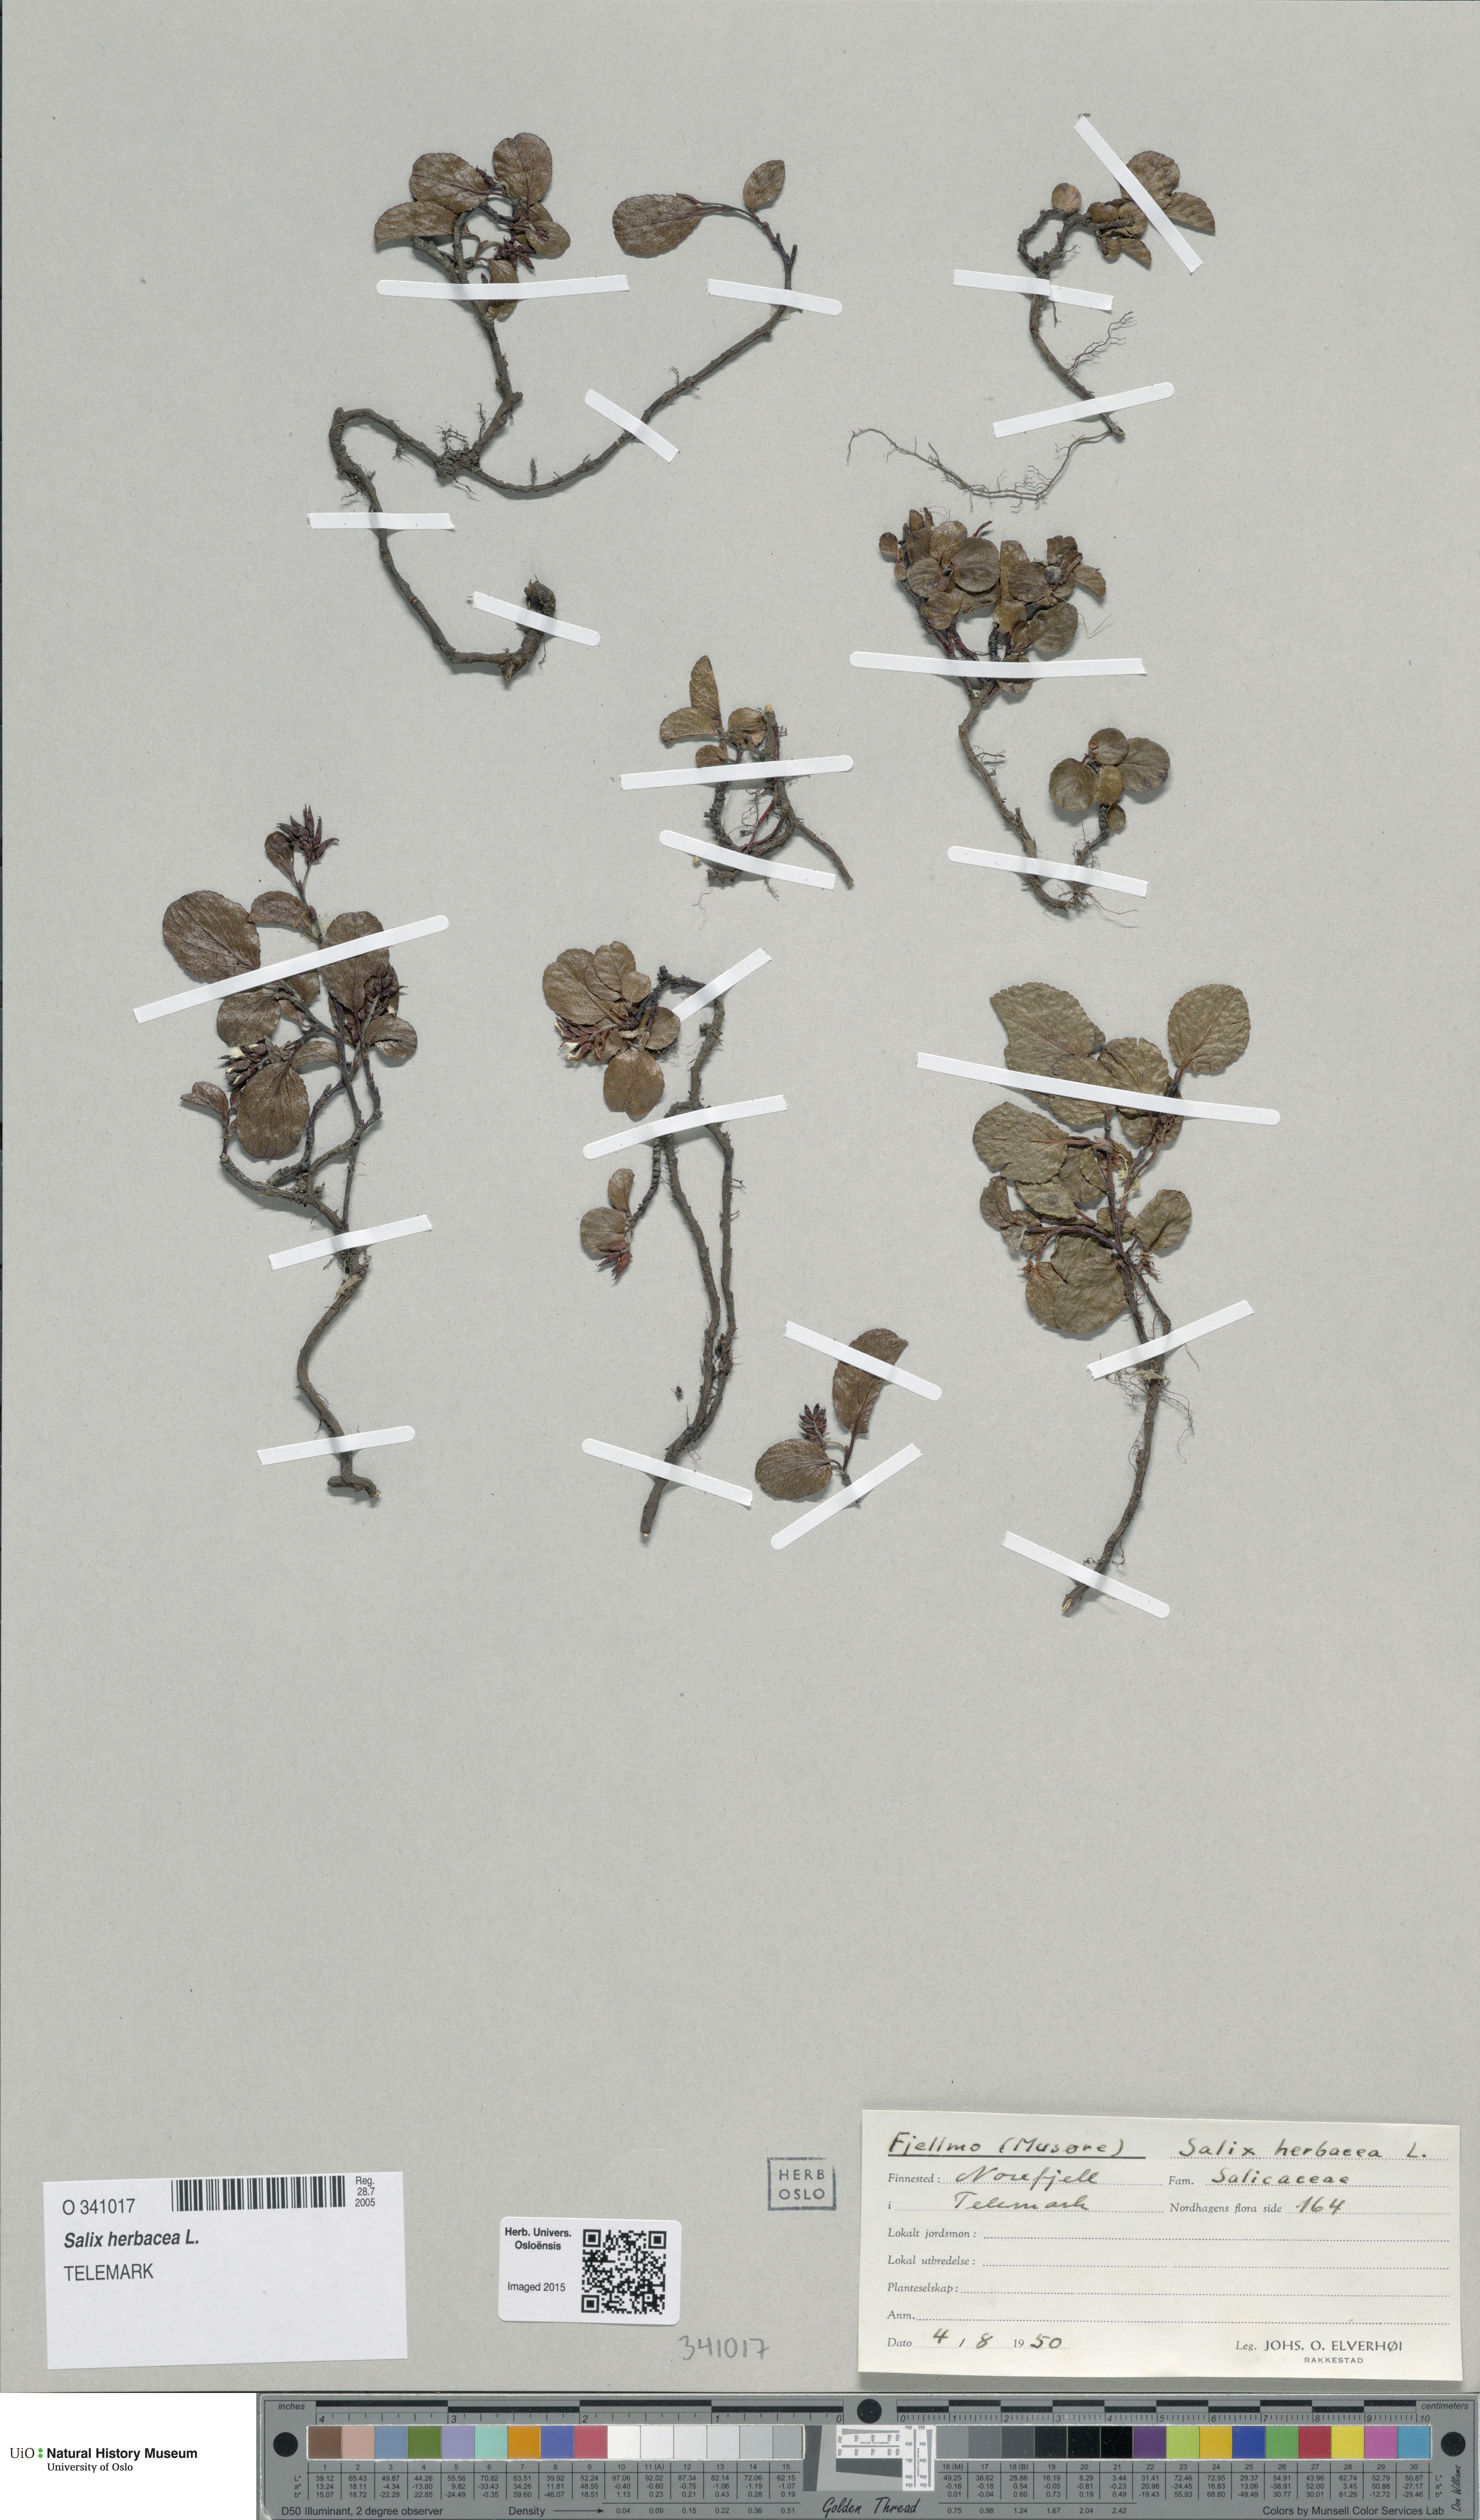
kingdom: Plantae
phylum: Tracheophyta
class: Magnoliopsida
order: Malpighiales
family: Salicaceae
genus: Salix
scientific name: Salix herbacea
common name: Dwarf willow
